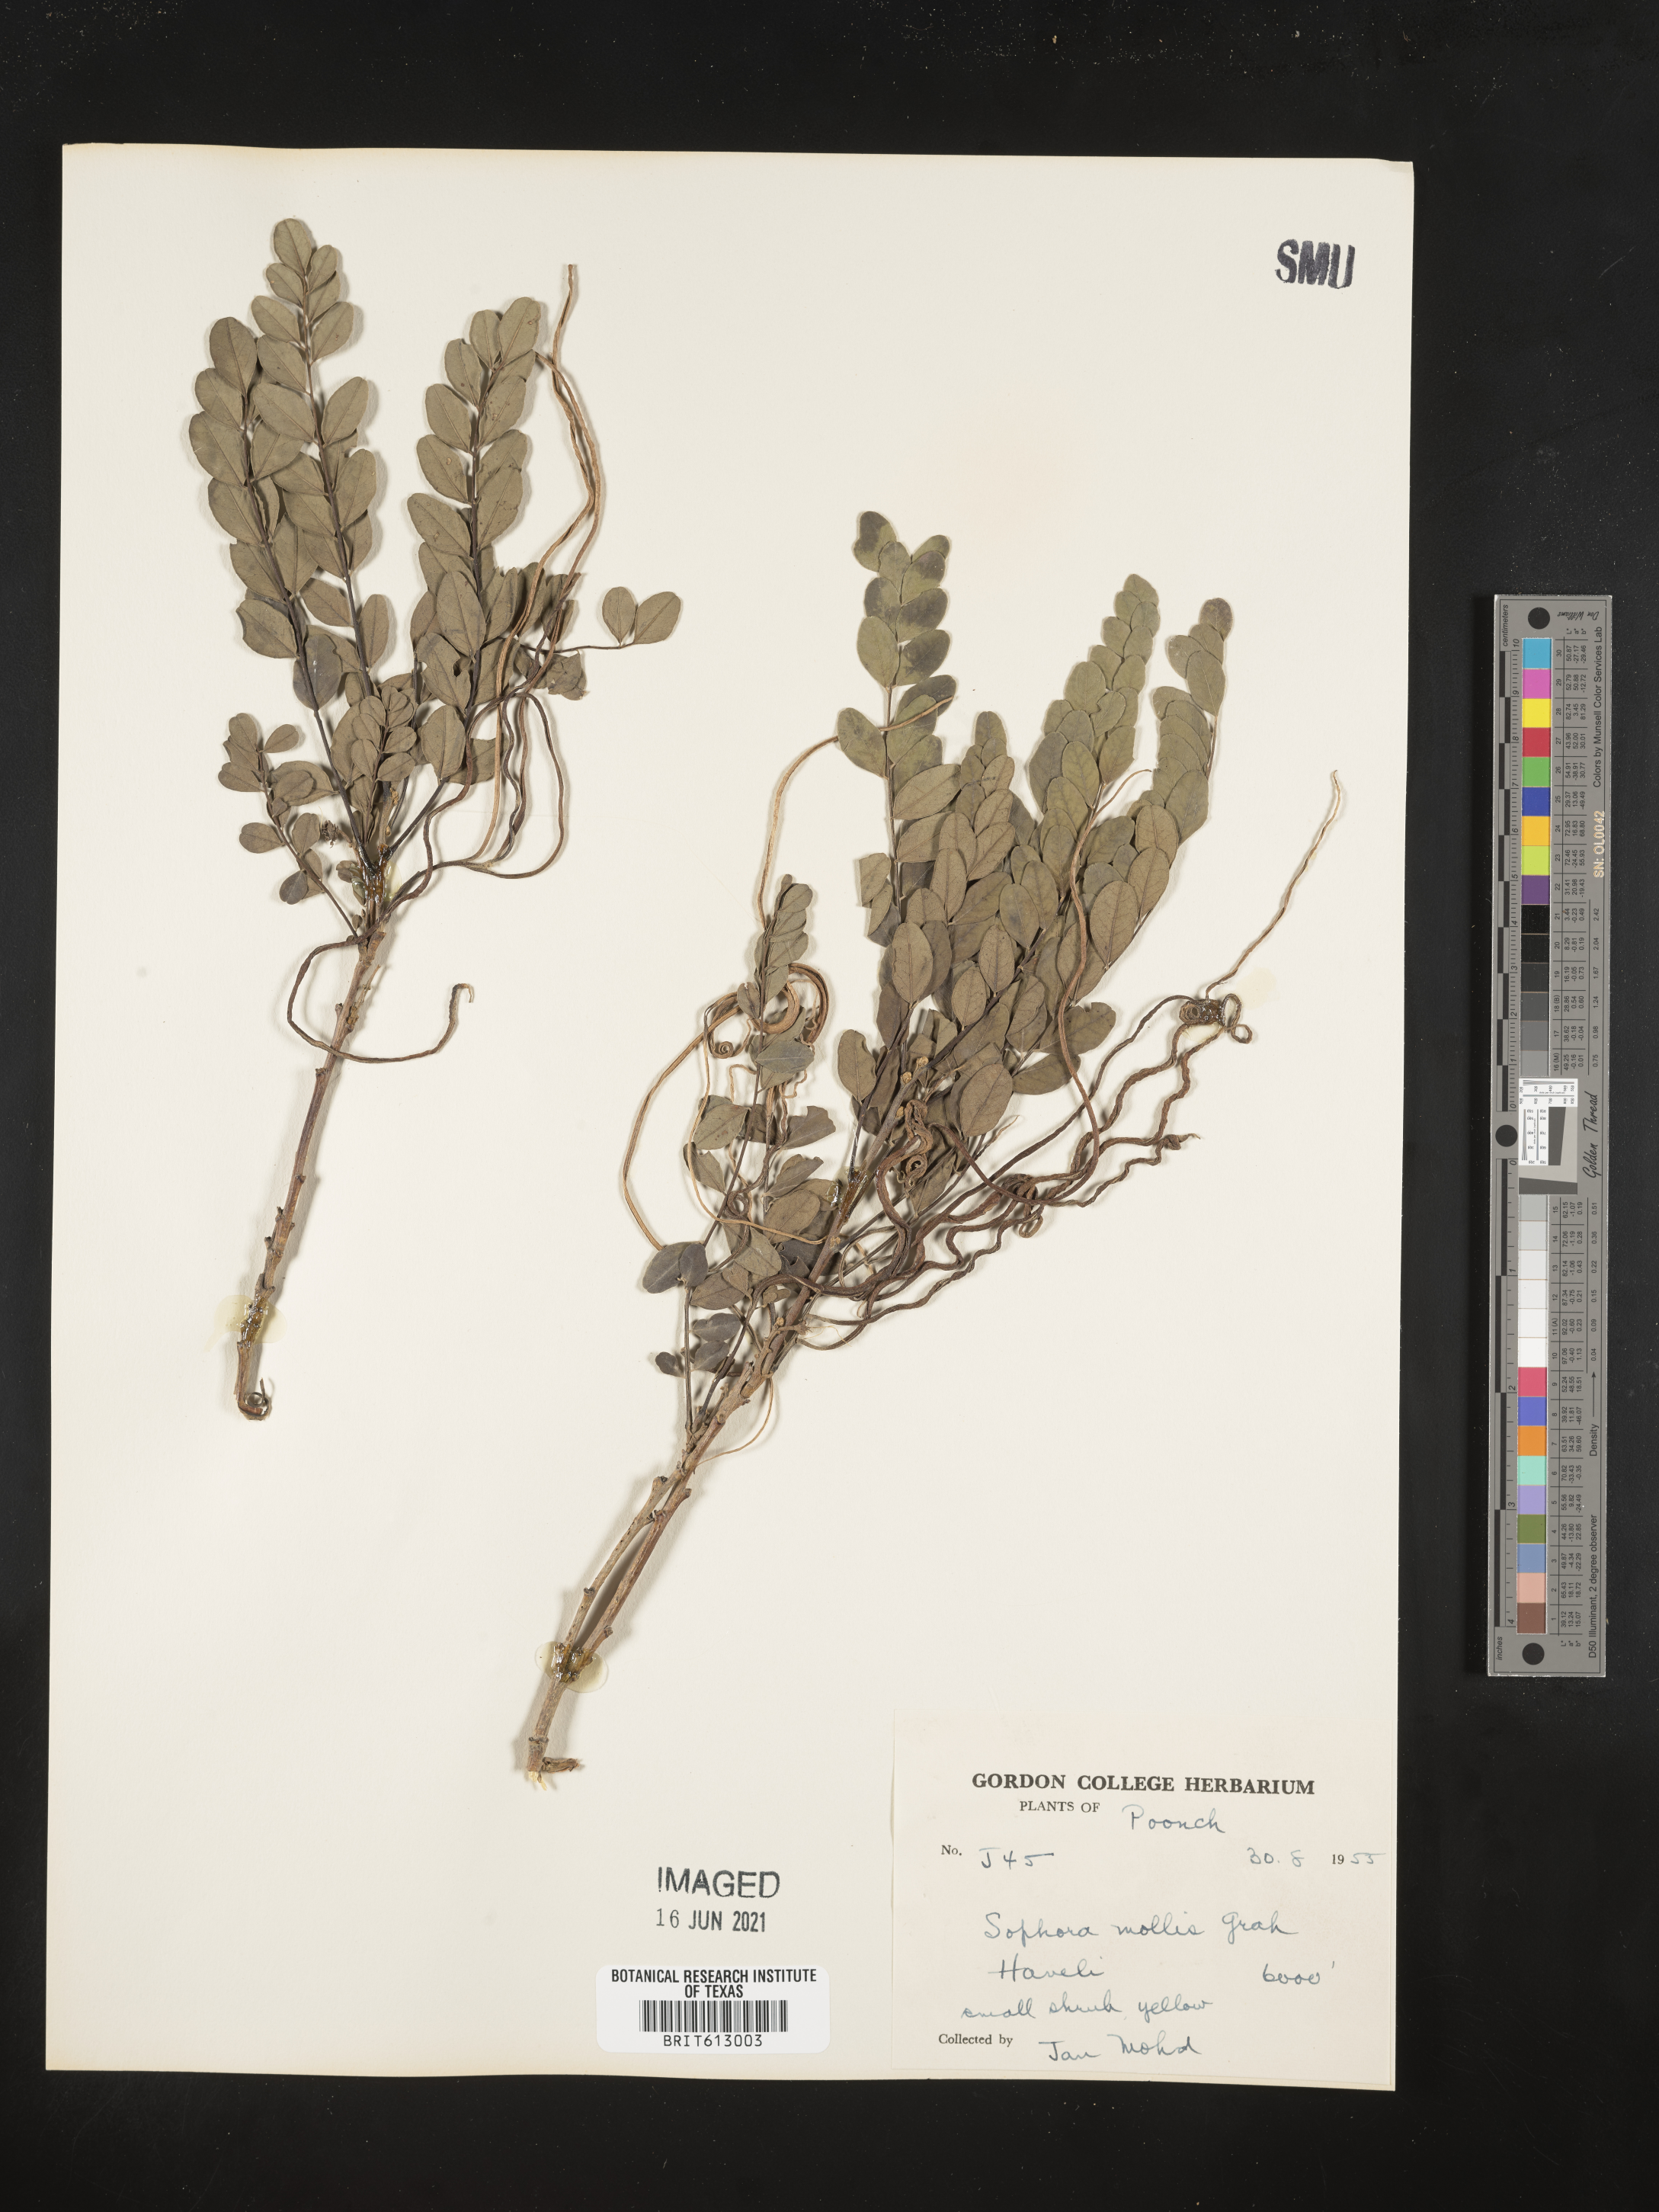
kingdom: Plantae
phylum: Tracheophyta
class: Magnoliopsida
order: Fabales
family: Fabaceae
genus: Sophora
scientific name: Sophora mollis
